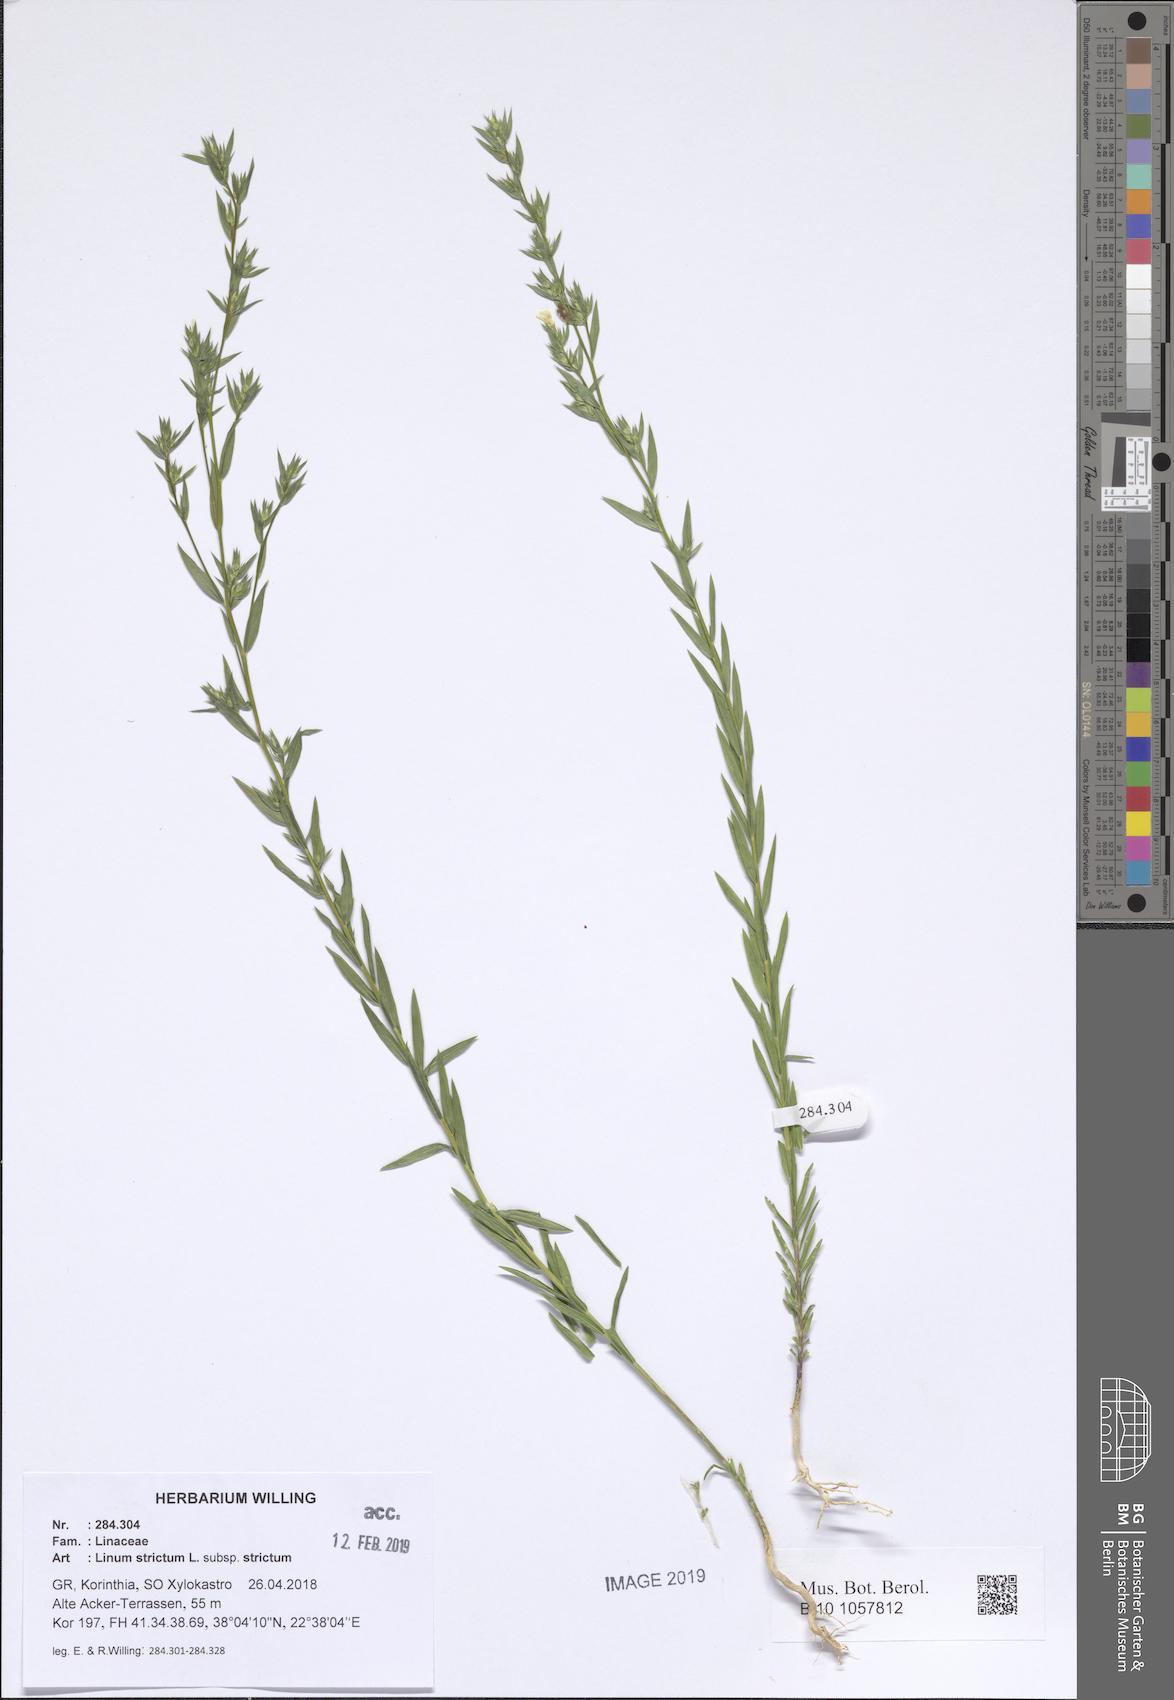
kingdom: Plantae
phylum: Tracheophyta
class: Magnoliopsida
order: Malpighiales
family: Linaceae
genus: Linum
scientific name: Linum strictum
